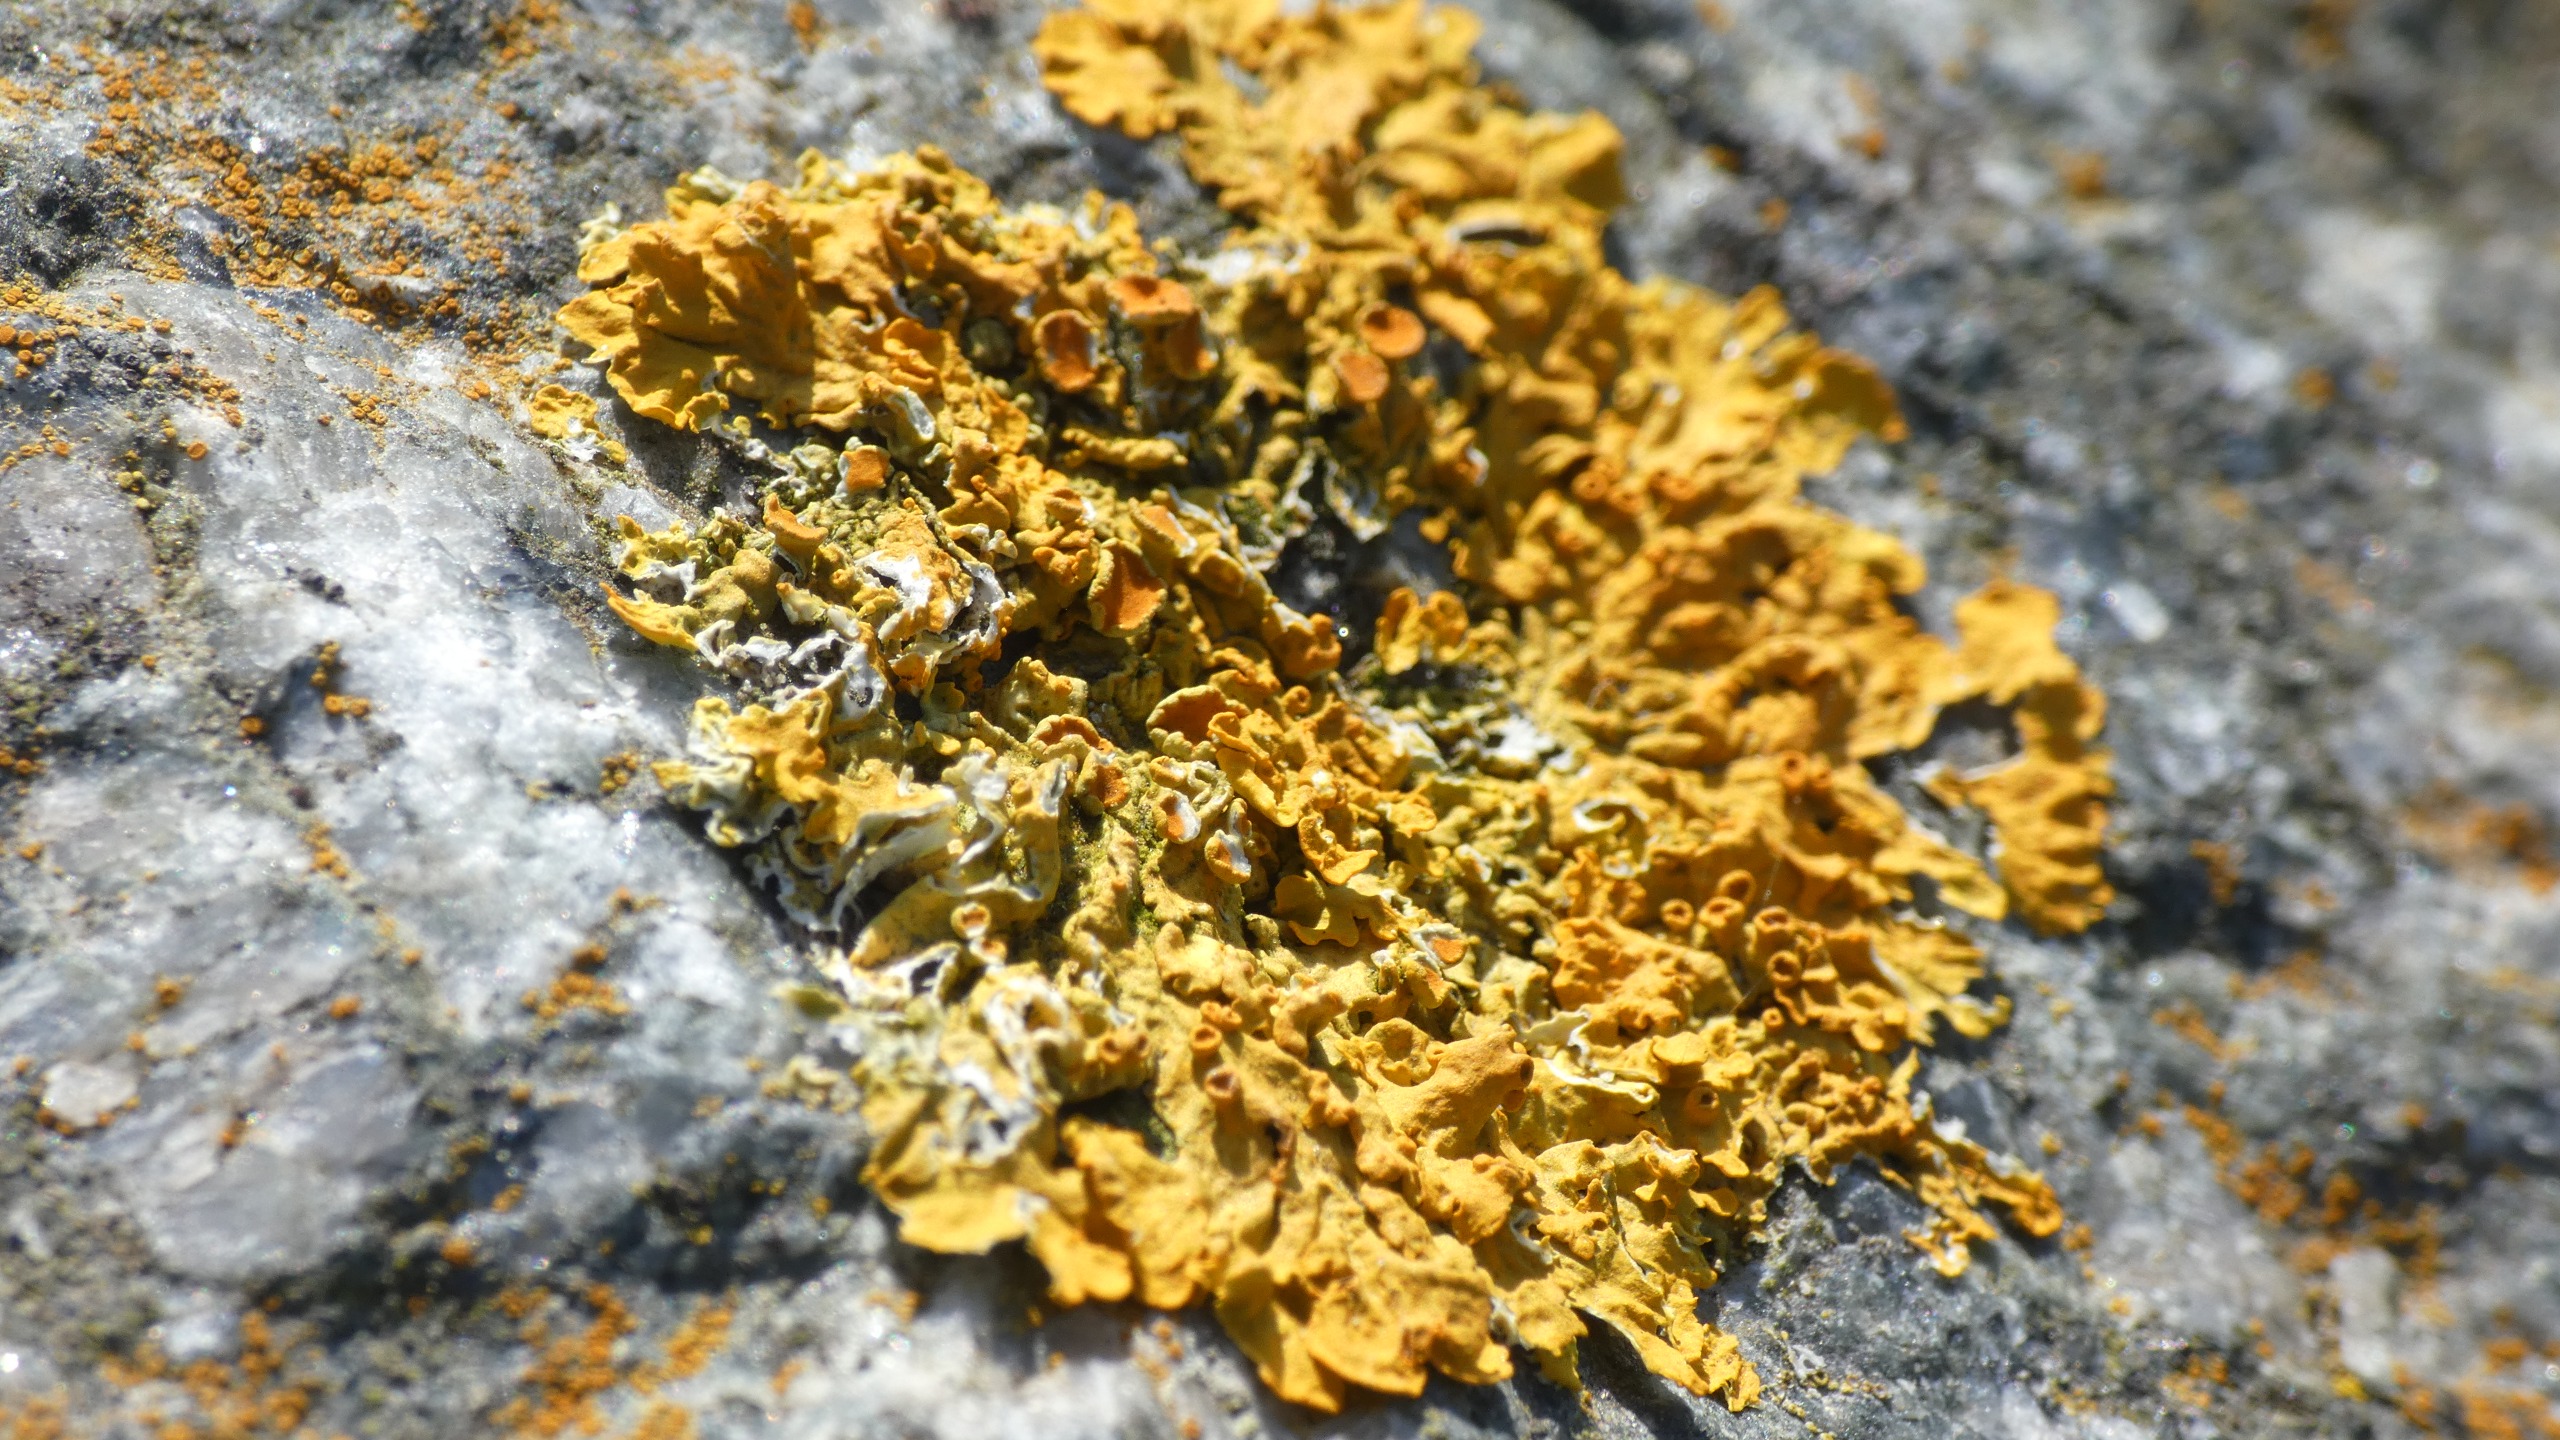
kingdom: Fungi
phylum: Ascomycota
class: Lecanoromycetes
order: Teloschistales
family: Teloschistaceae
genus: Xanthoria
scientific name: Xanthoria parietina
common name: Almindelig væggelav
